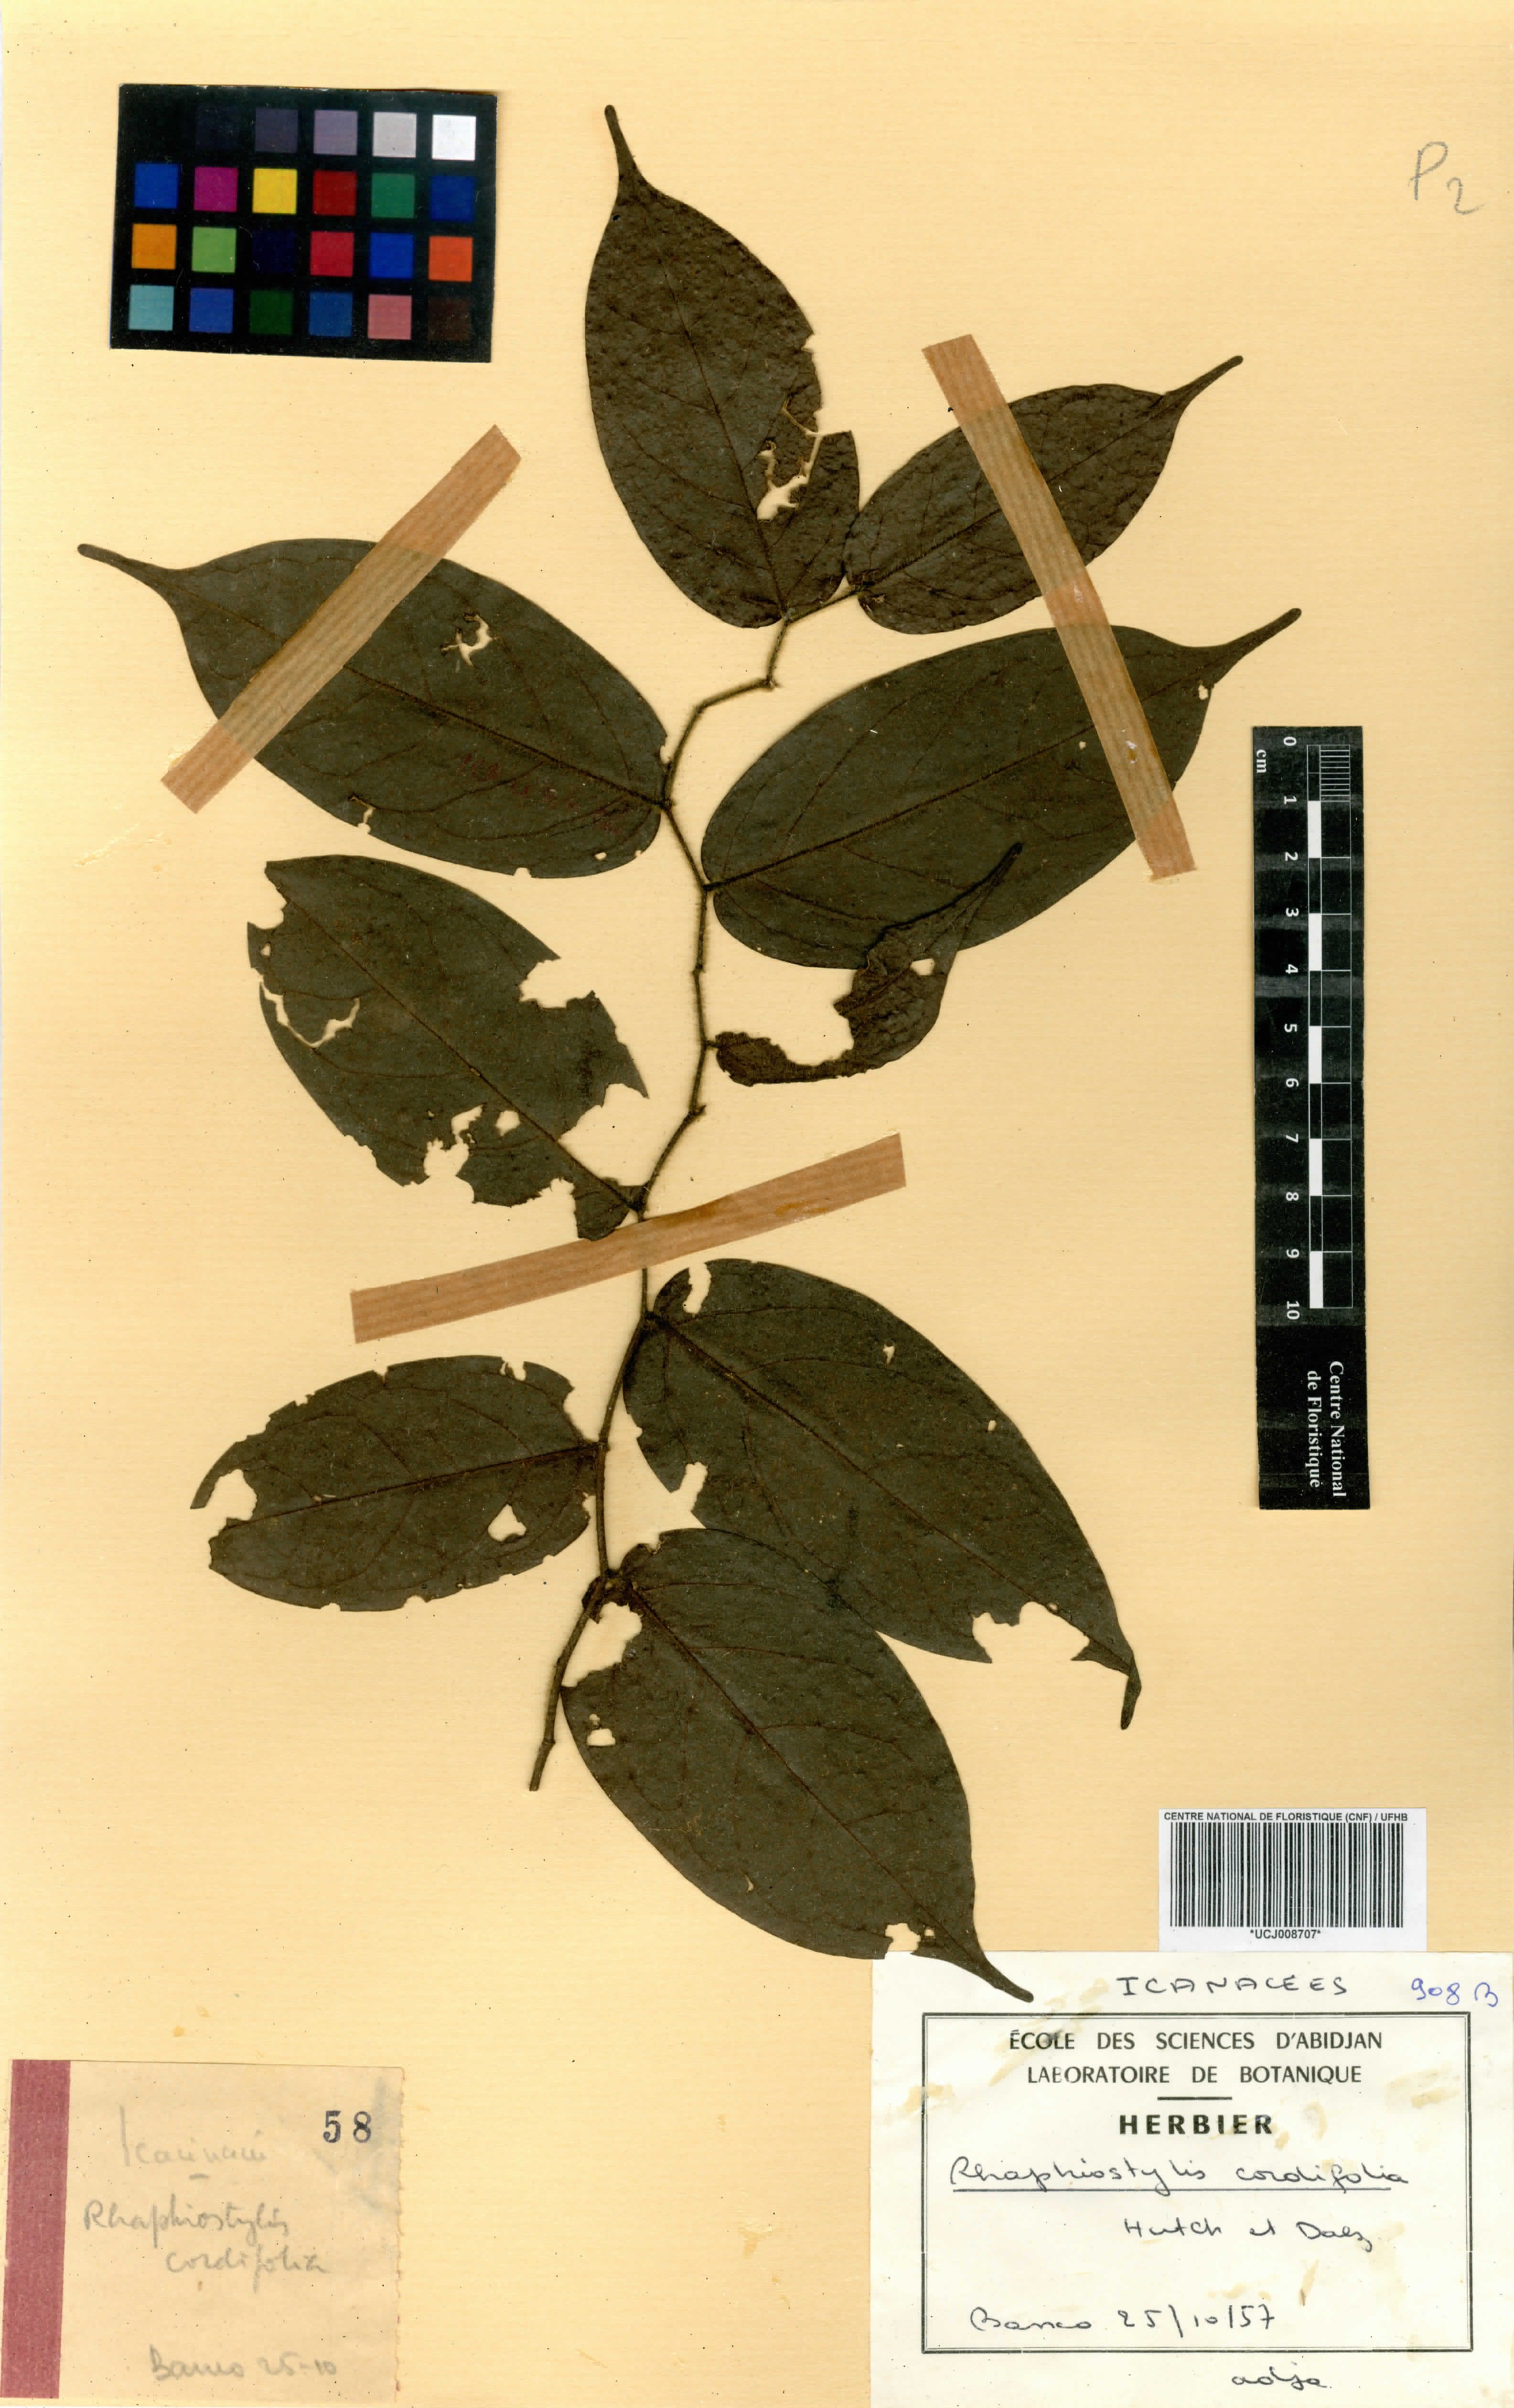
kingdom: Plantae
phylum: Tracheophyta
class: Magnoliopsida
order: Metteniusales
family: Metteniusaceae
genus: Rhaphiostylis
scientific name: Rhaphiostylis cordifolia
